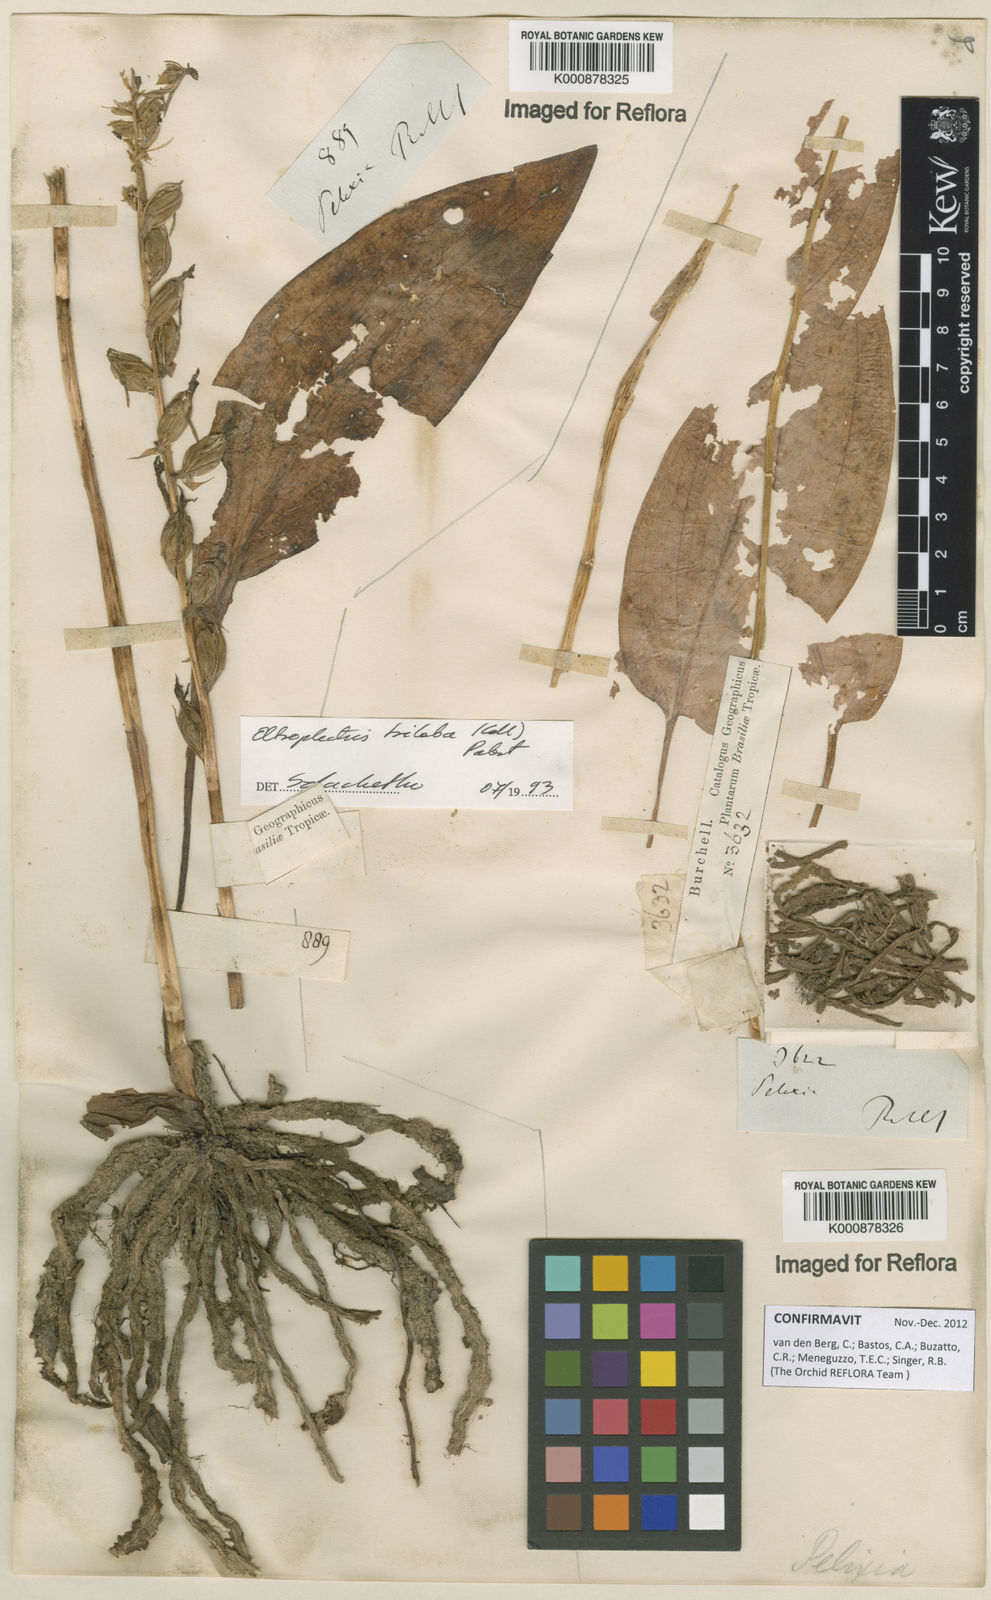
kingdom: Plantae
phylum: Tracheophyta
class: Liliopsida
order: Asparagales
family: Orchidaceae
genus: Eltroplectris
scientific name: Eltroplectris triloba
